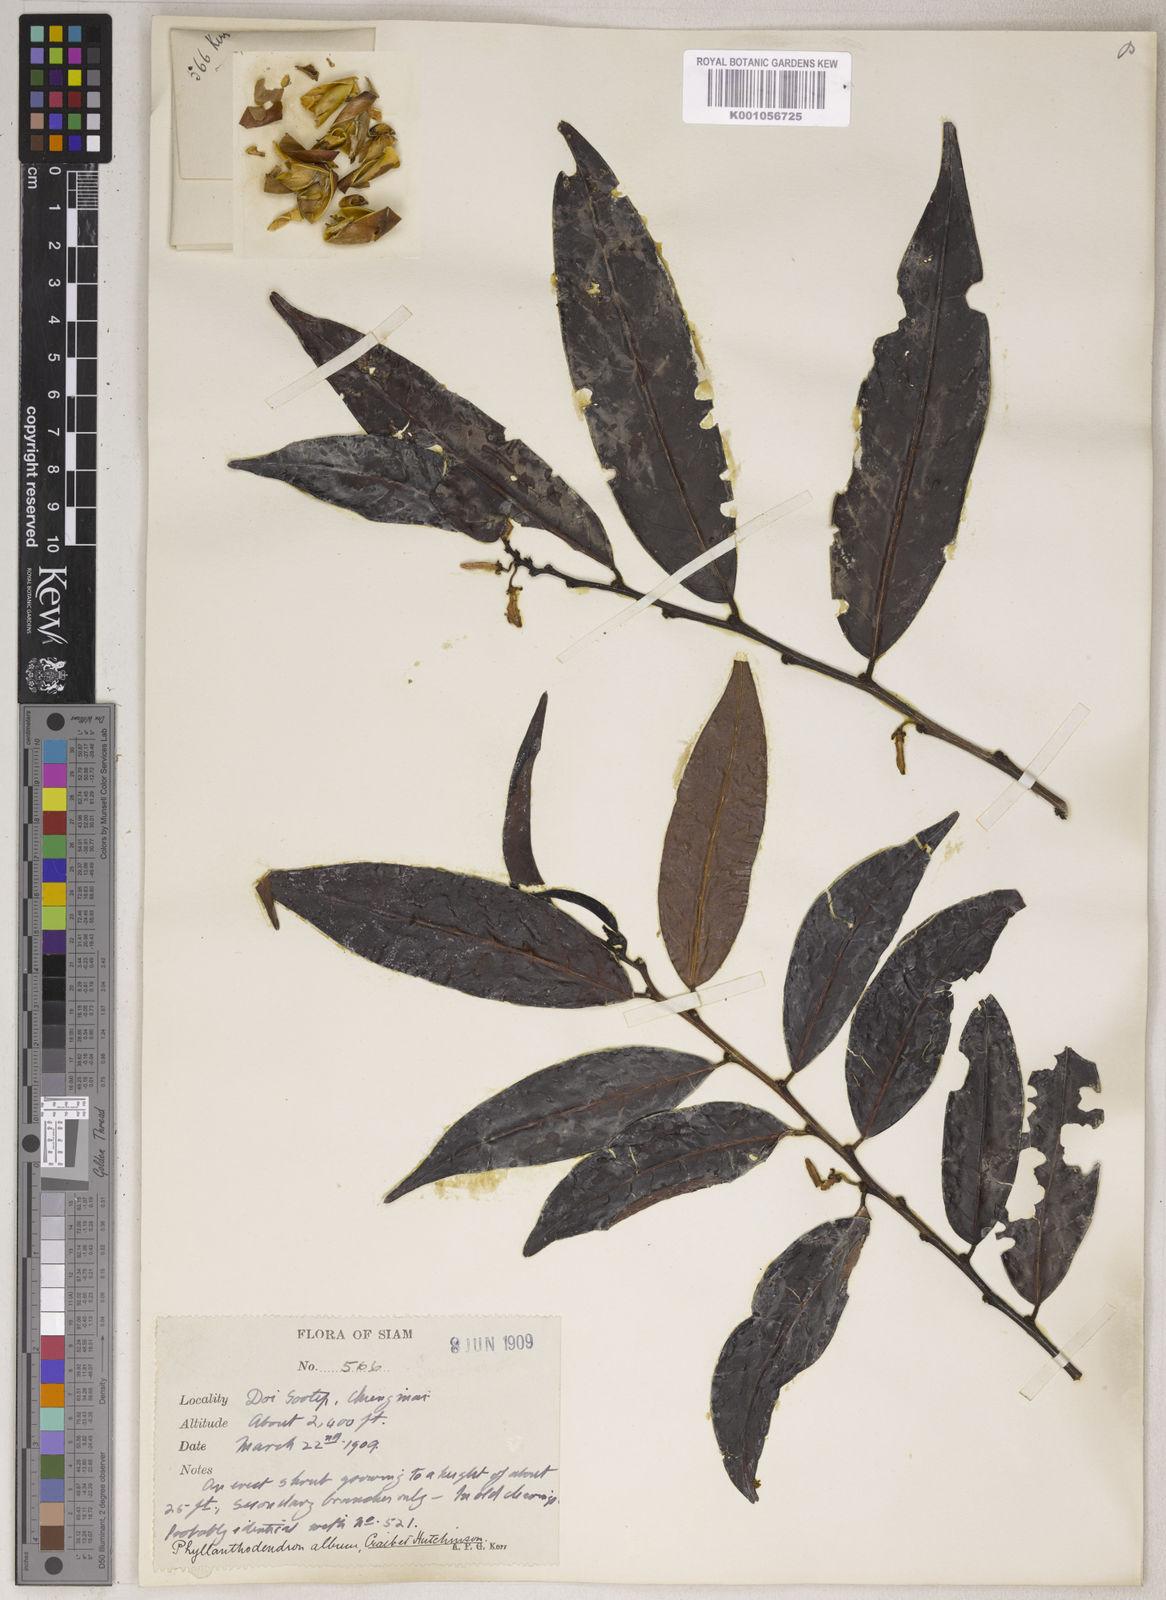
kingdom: Plantae
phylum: Tracheophyta
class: Magnoliopsida
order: Malpighiales
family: Phyllanthaceae
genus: Phyllanthus
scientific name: Phyllanthus roseus
